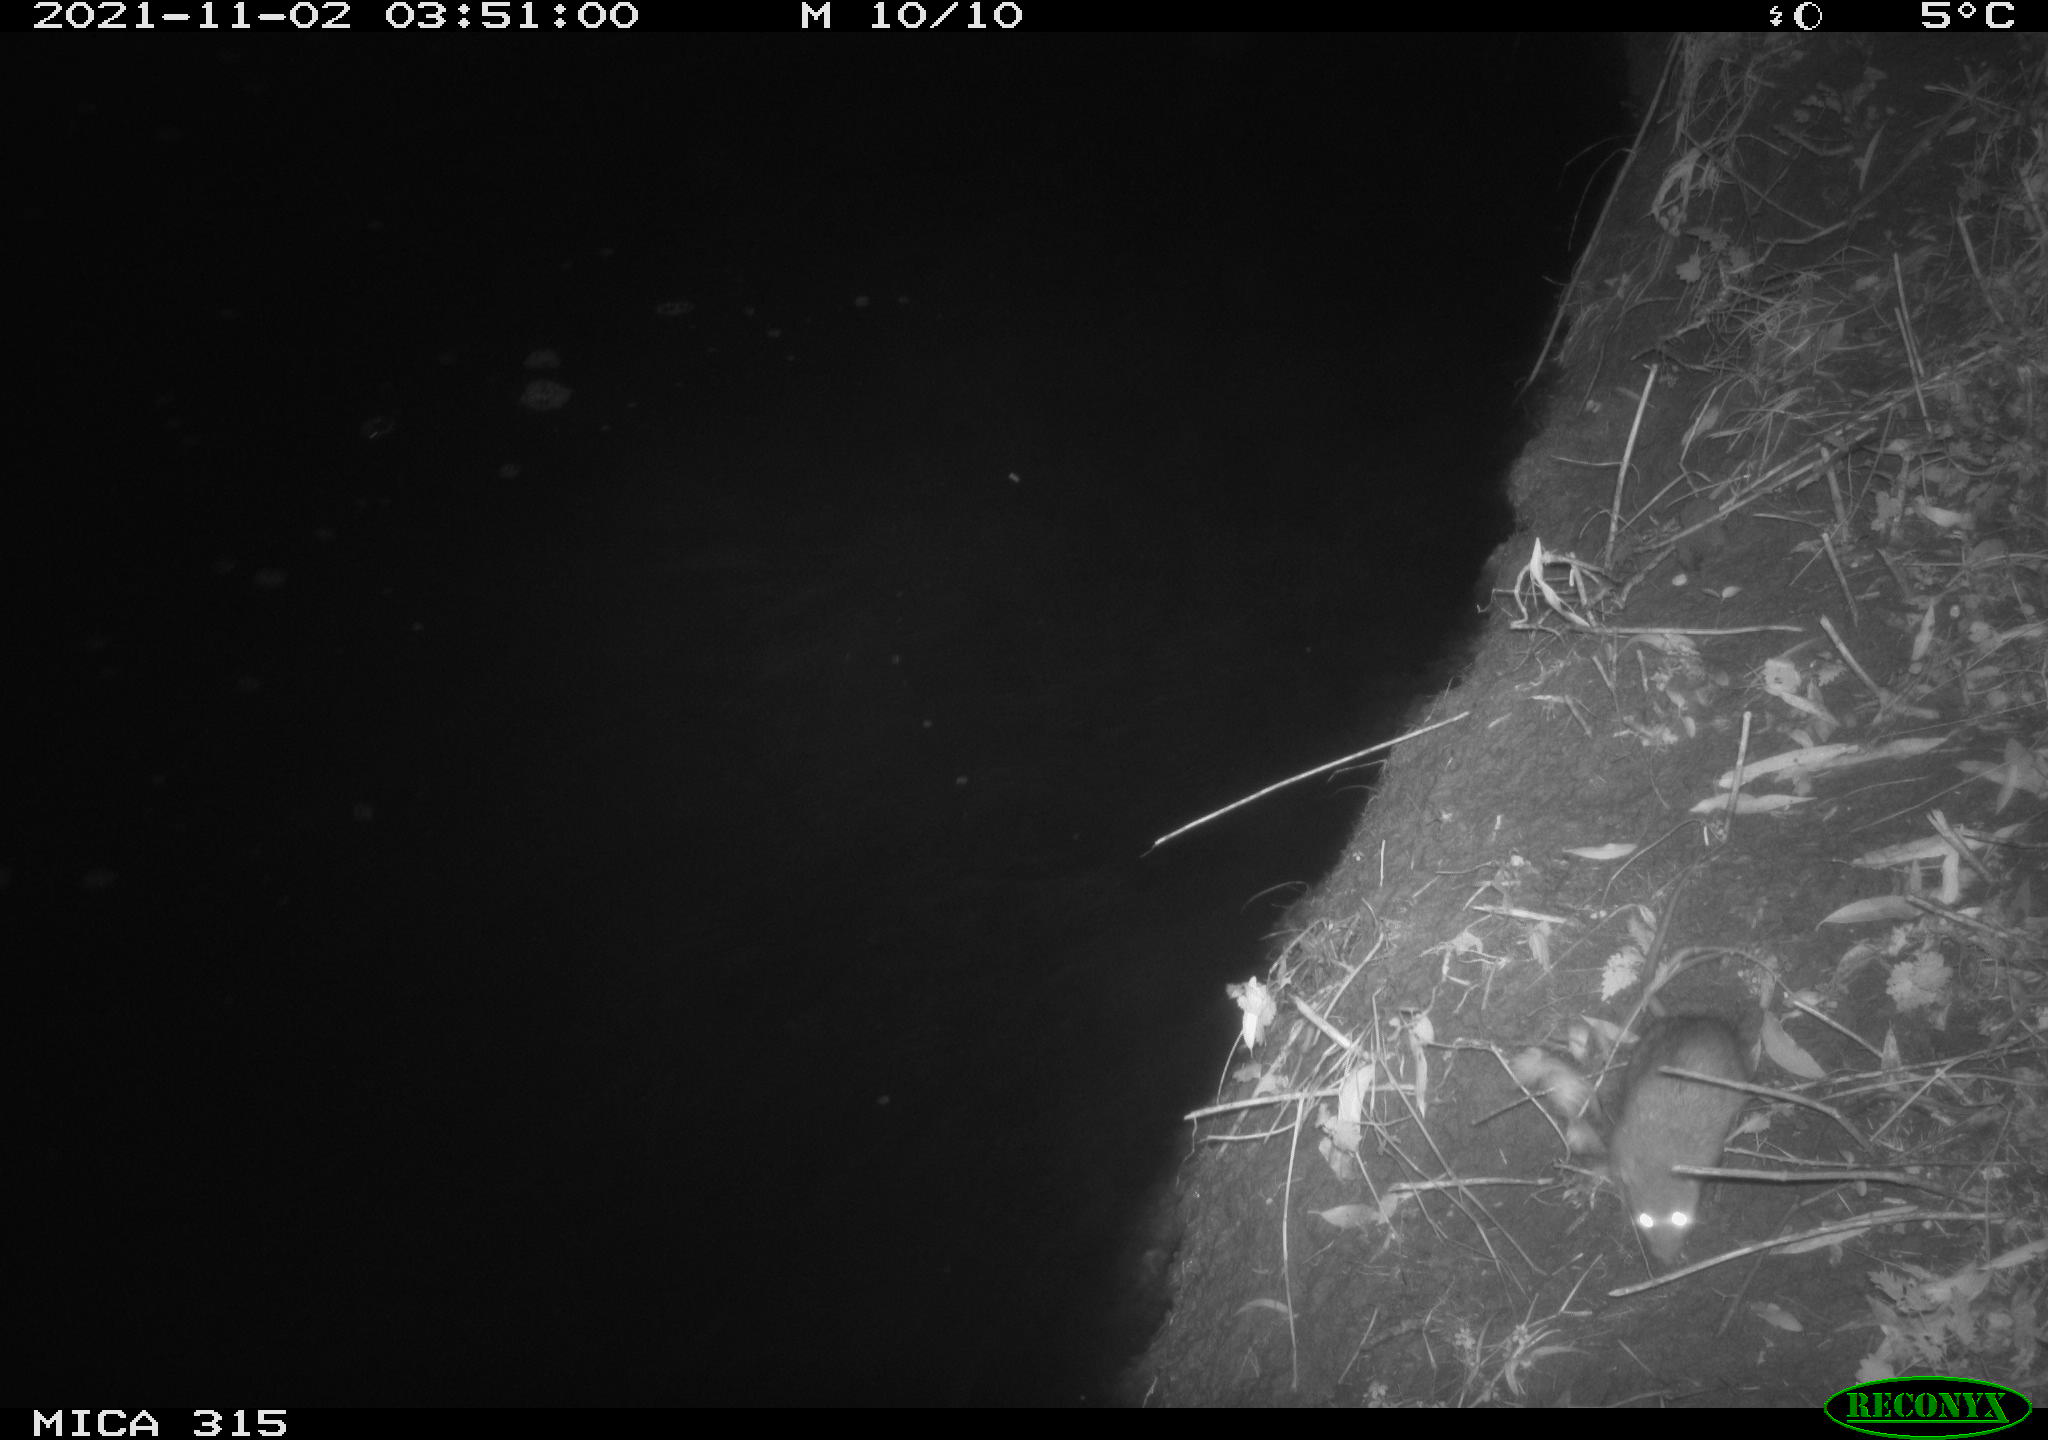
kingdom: Animalia
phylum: Chordata
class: Mammalia
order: Rodentia
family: Muridae
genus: Rattus
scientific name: Rattus norvegicus
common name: Brown rat
